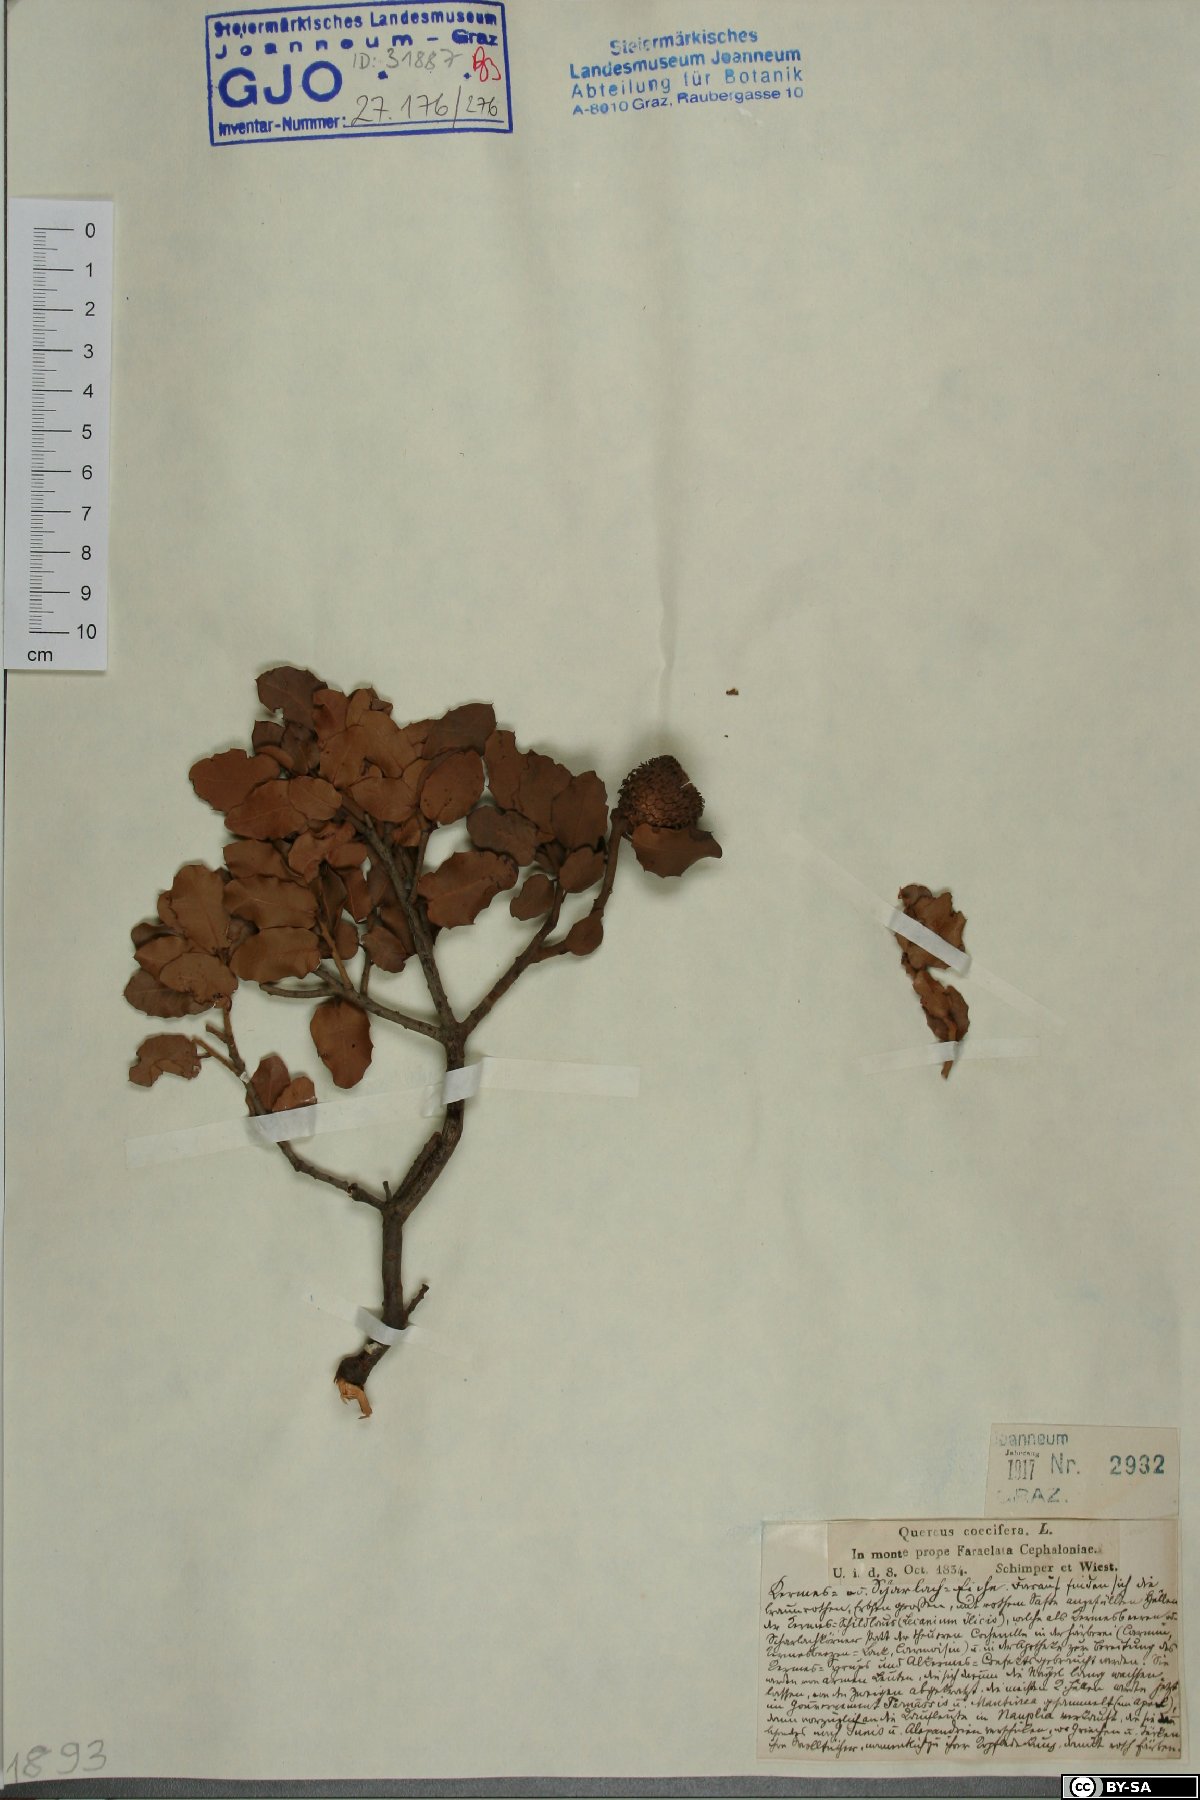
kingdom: Plantae
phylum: Tracheophyta
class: Magnoliopsida
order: Fagales
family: Fagaceae
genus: Quercus
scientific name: Quercus coccifera
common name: Kermes oak
